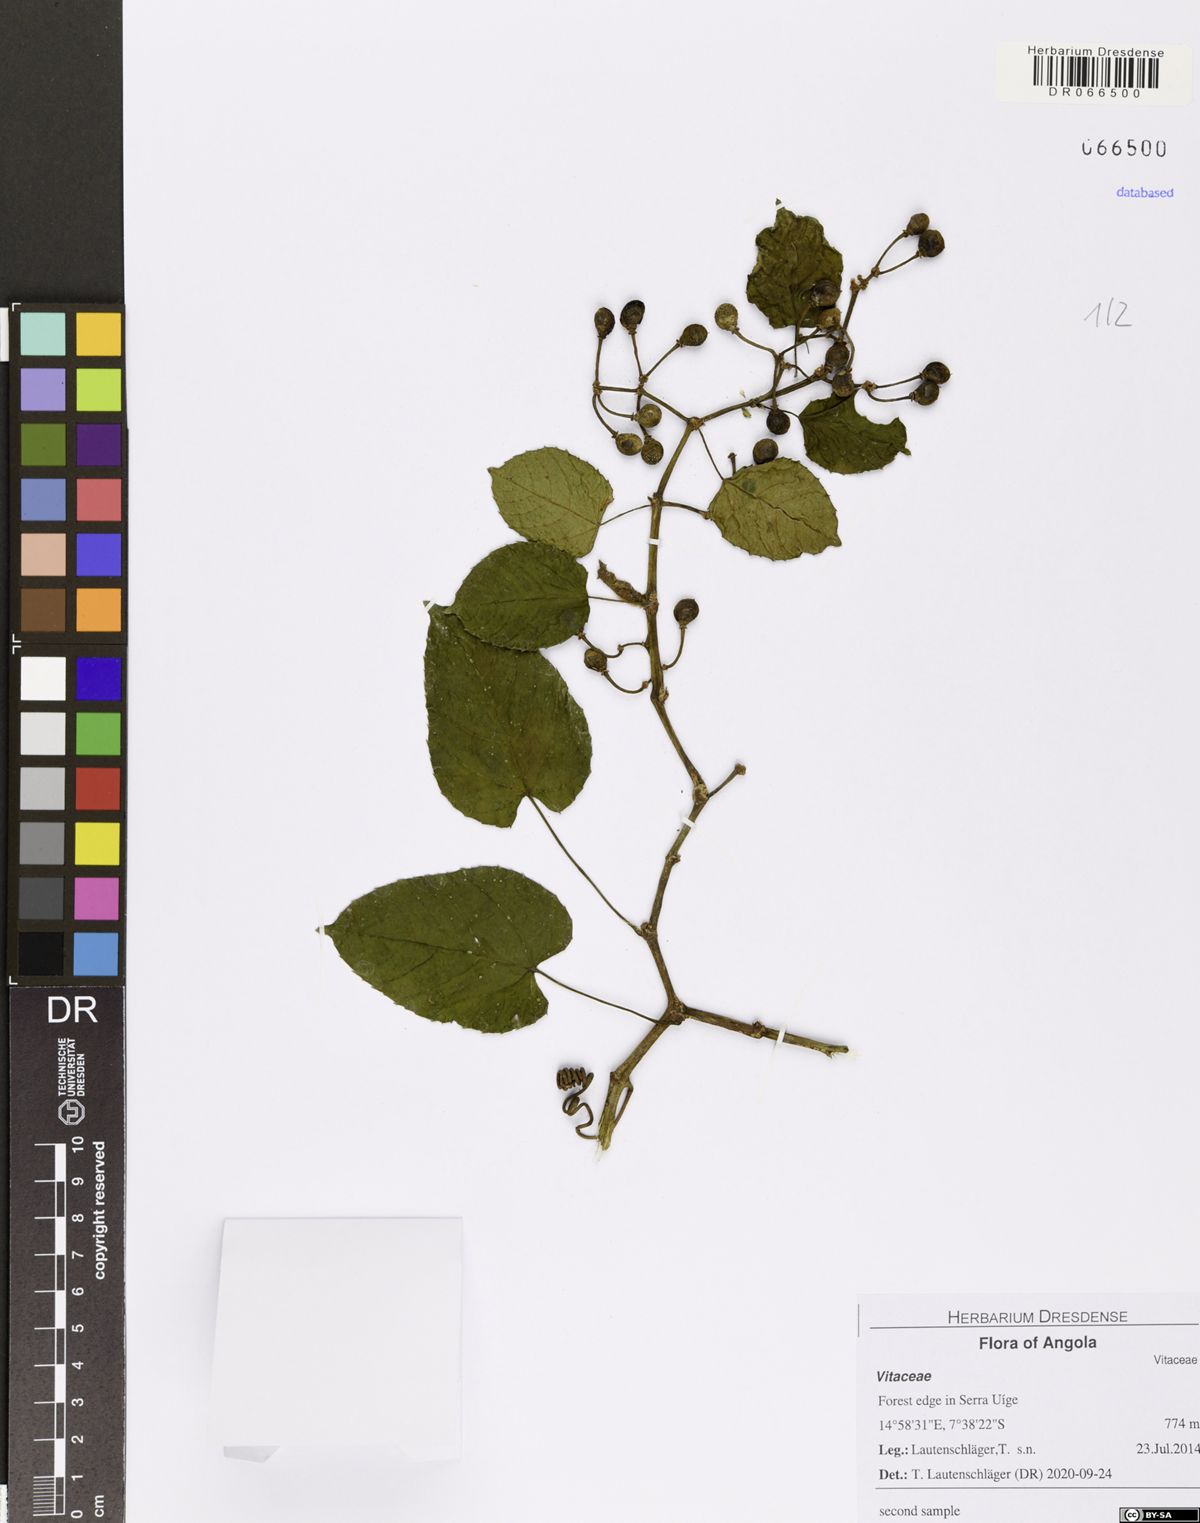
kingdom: Plantae
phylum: Tracheophyta
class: Magnoliopsida
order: Vitales
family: Vitaceae
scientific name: Vitaceae
